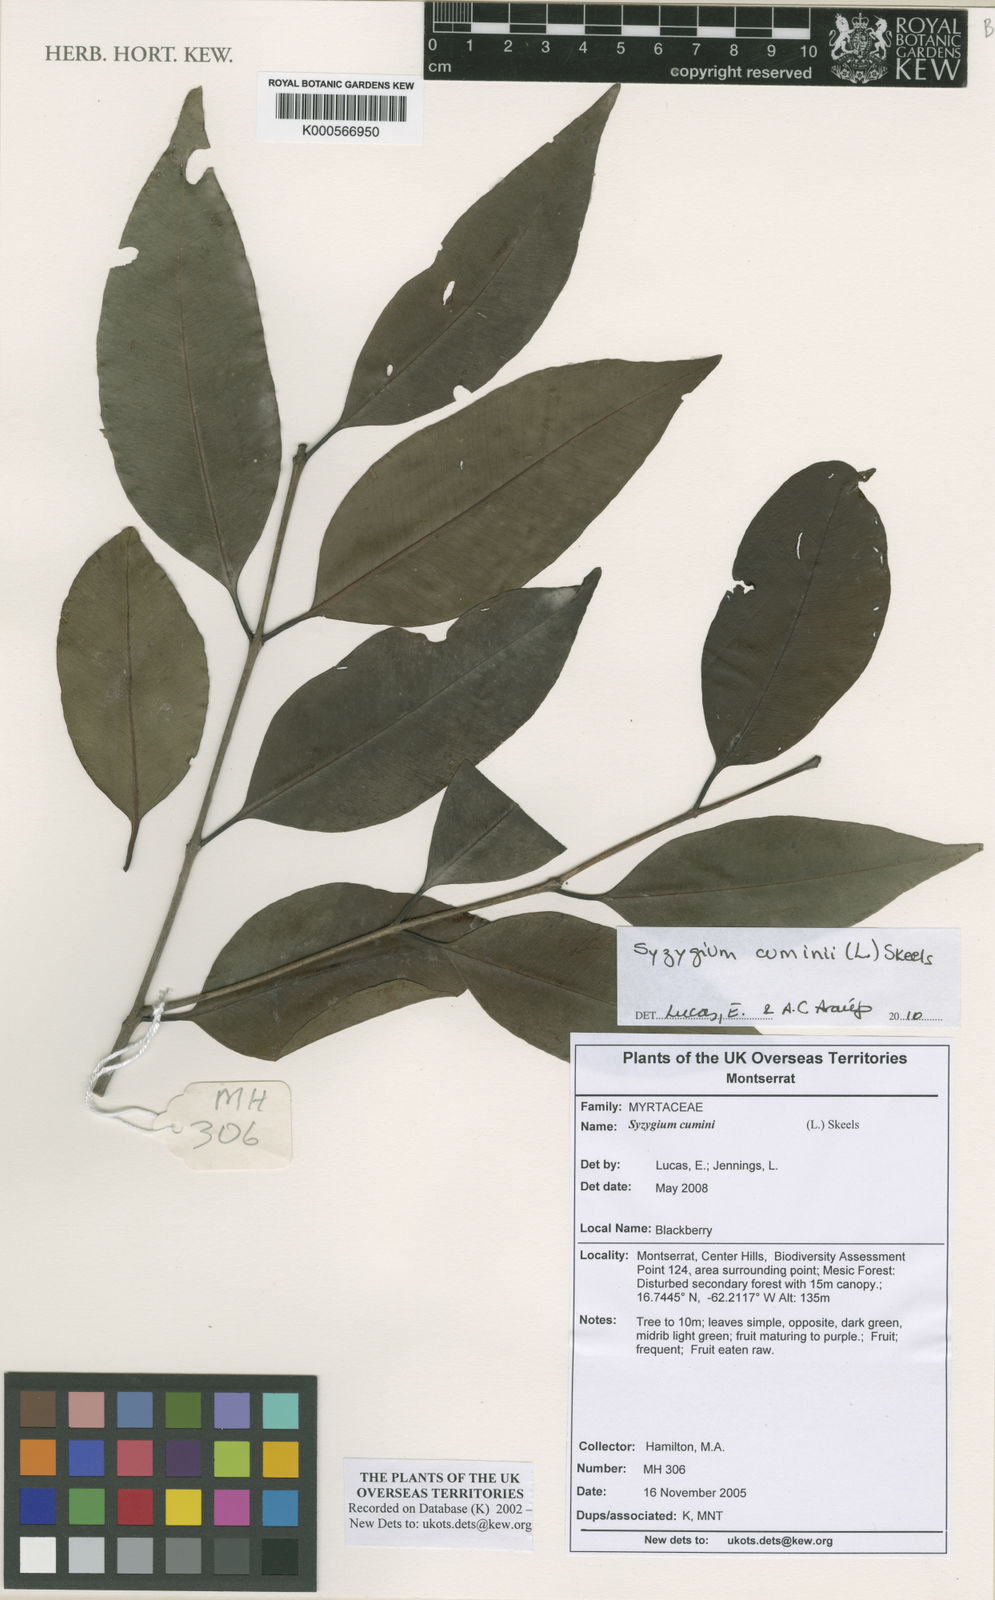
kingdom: Plantae
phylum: Tracheophyta
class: Magnoliopsida
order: Myrtales
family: Myrtaceae
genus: Syzygium
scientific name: Syzygium cumini
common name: Java plum
